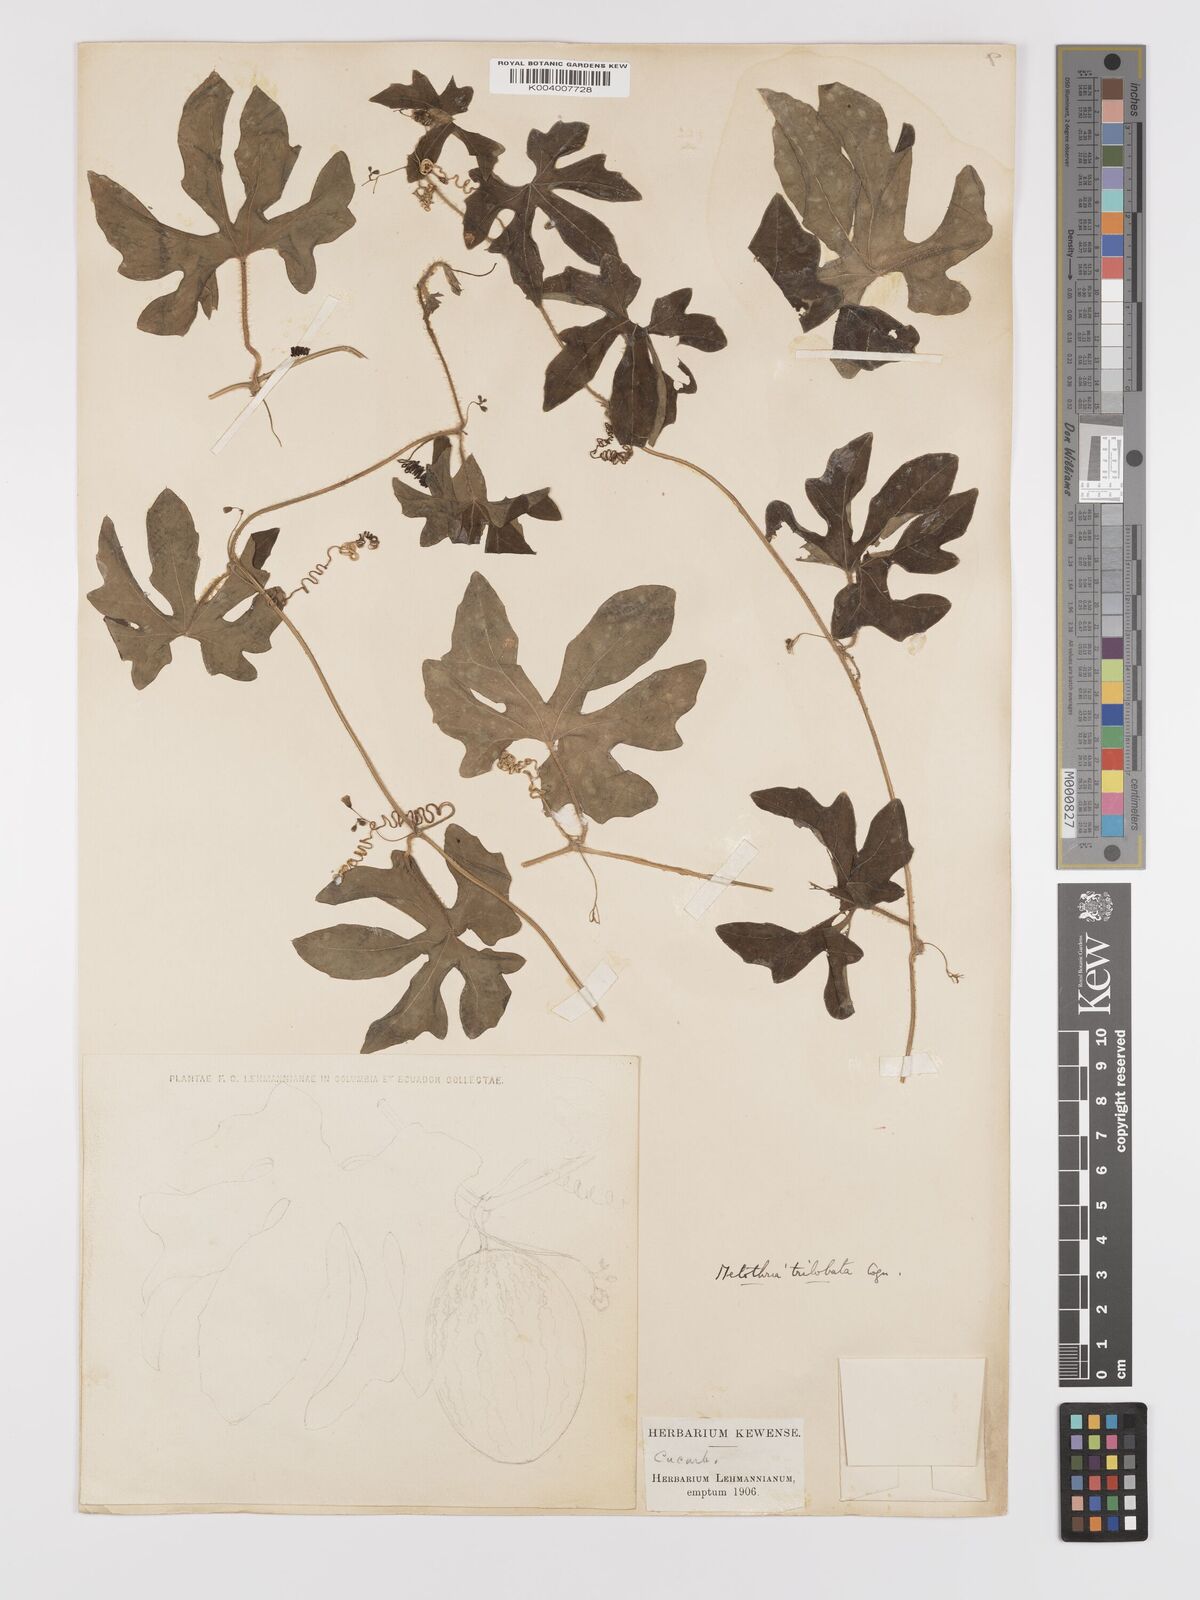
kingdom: Plantae
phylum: Tracheophyta
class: Magnoliopsida
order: Cucurbitales
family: Cucurbitaceae
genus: Melothria
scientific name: Melothria trilobata
